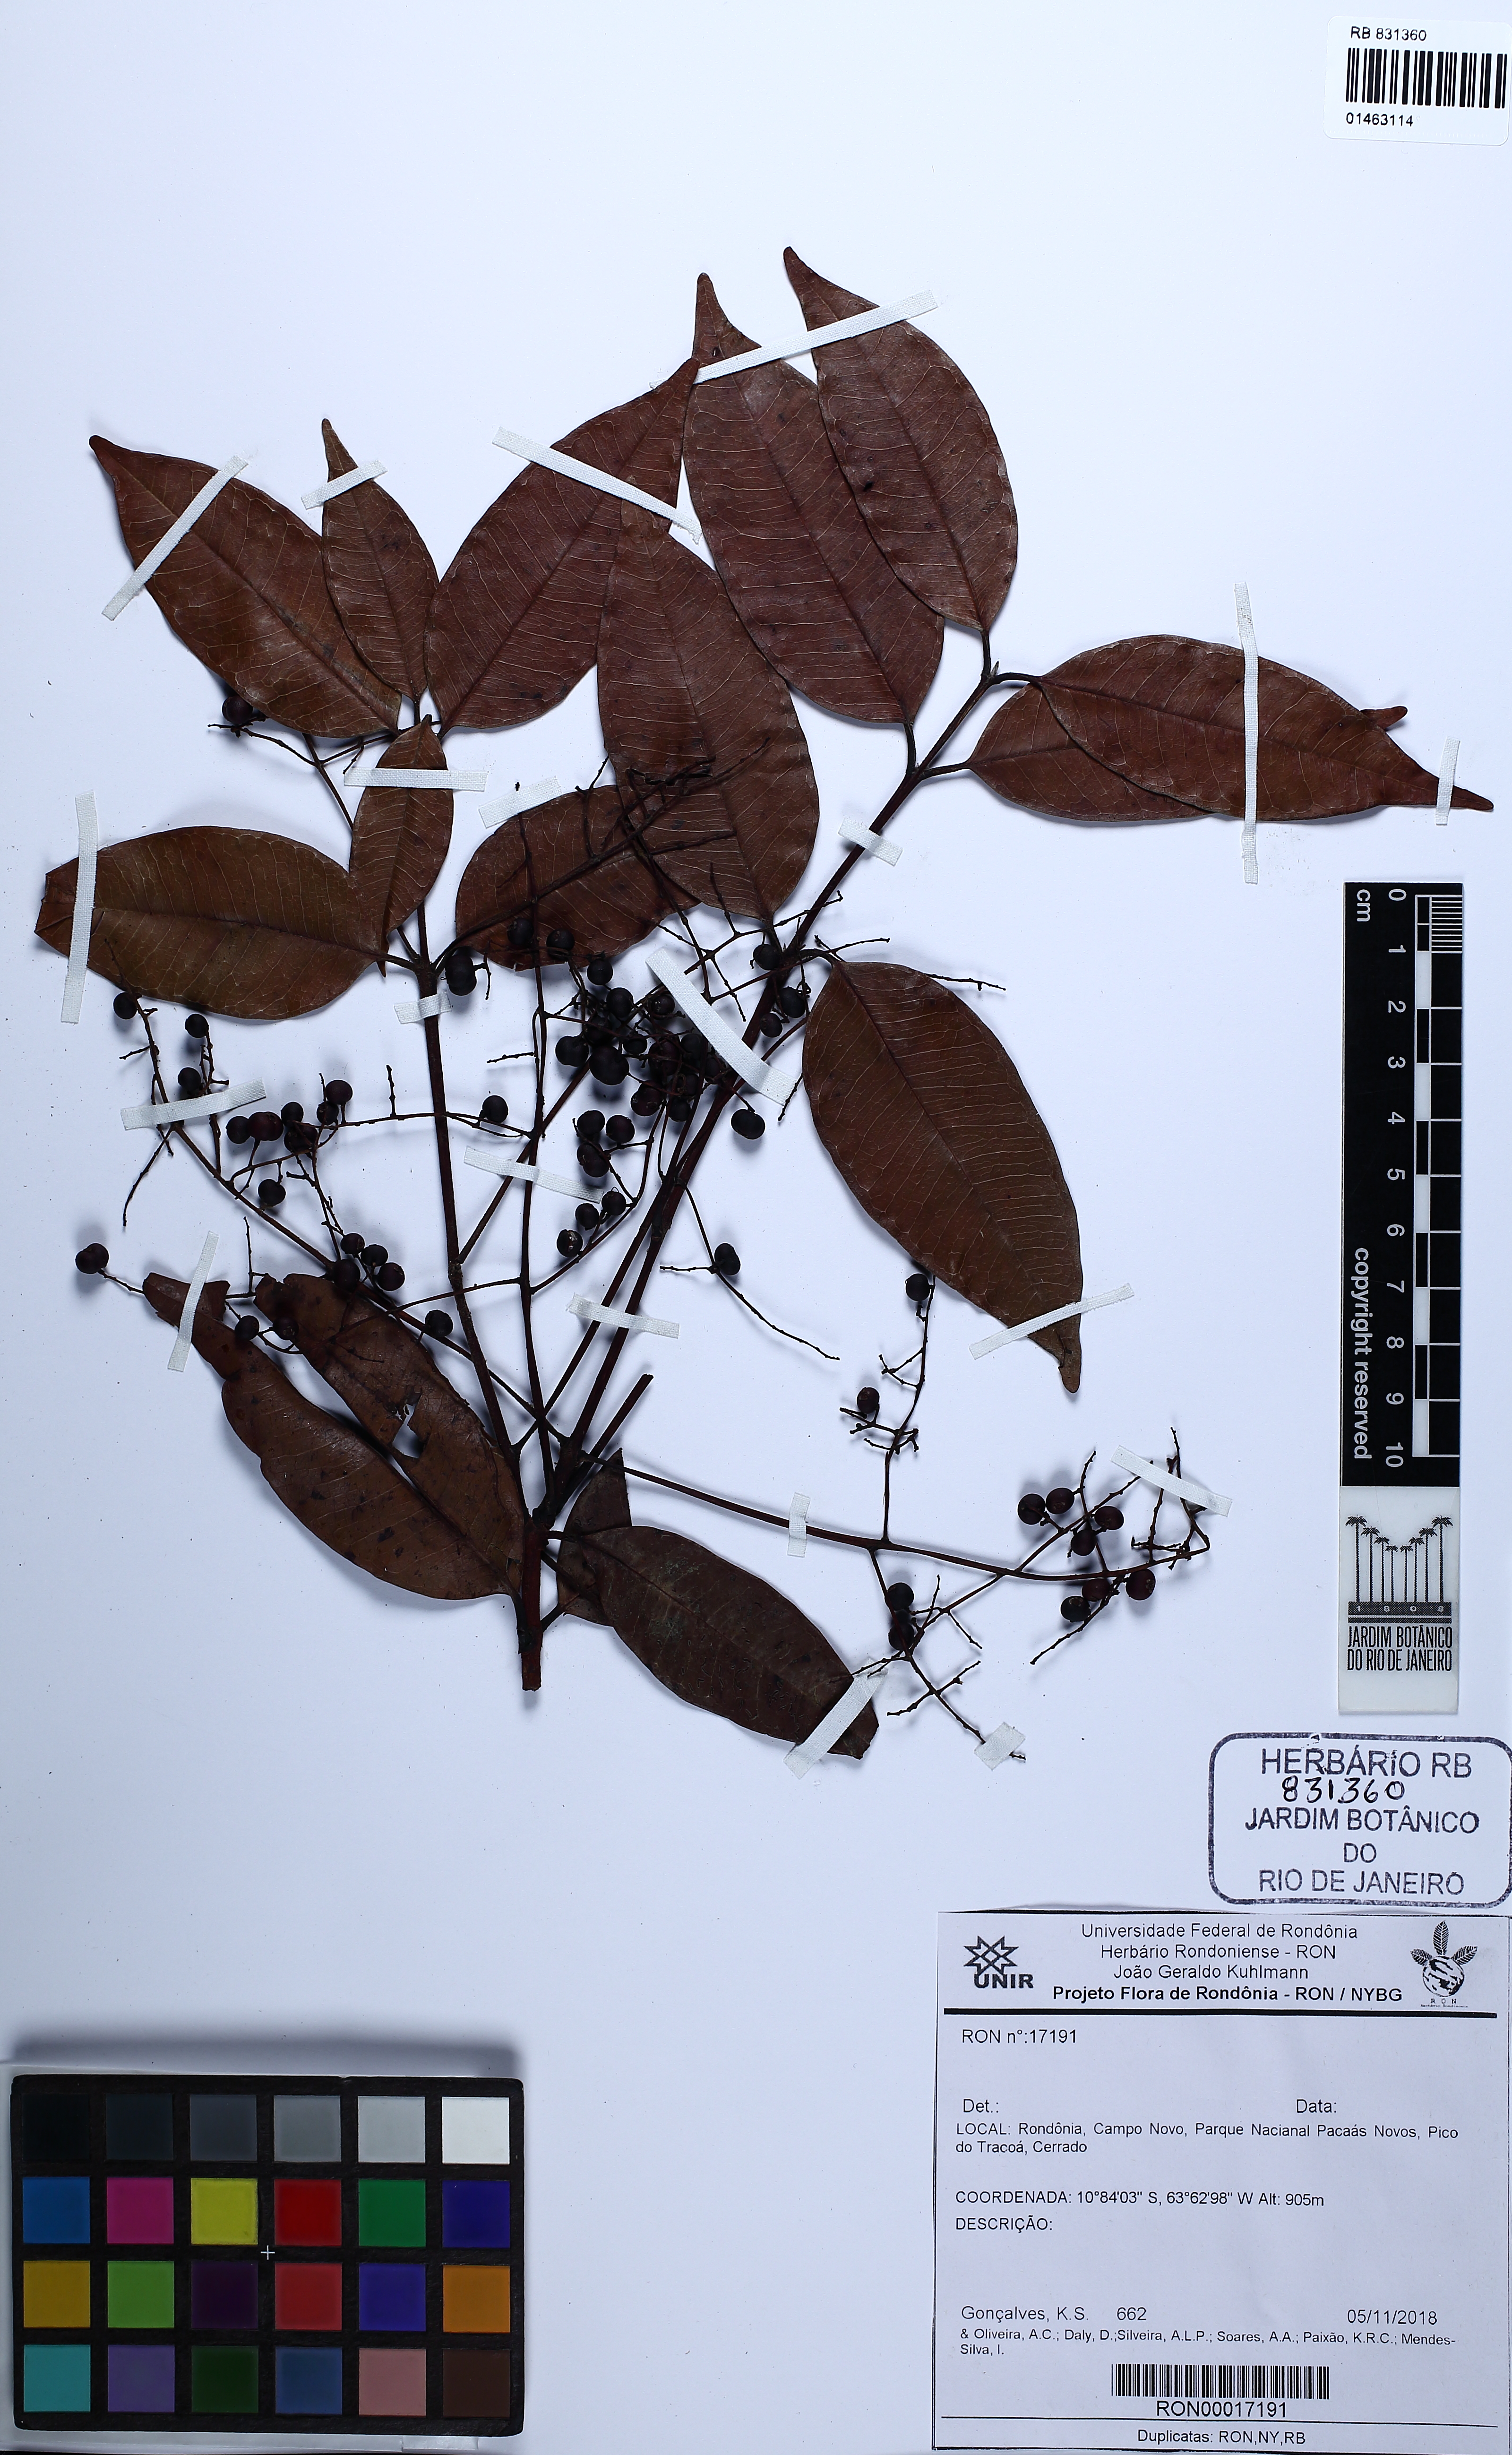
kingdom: Plantae
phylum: Tracheophyta
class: Magnoliopsida
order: Gentianales
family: Rubiaceae
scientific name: Rubiaceae
